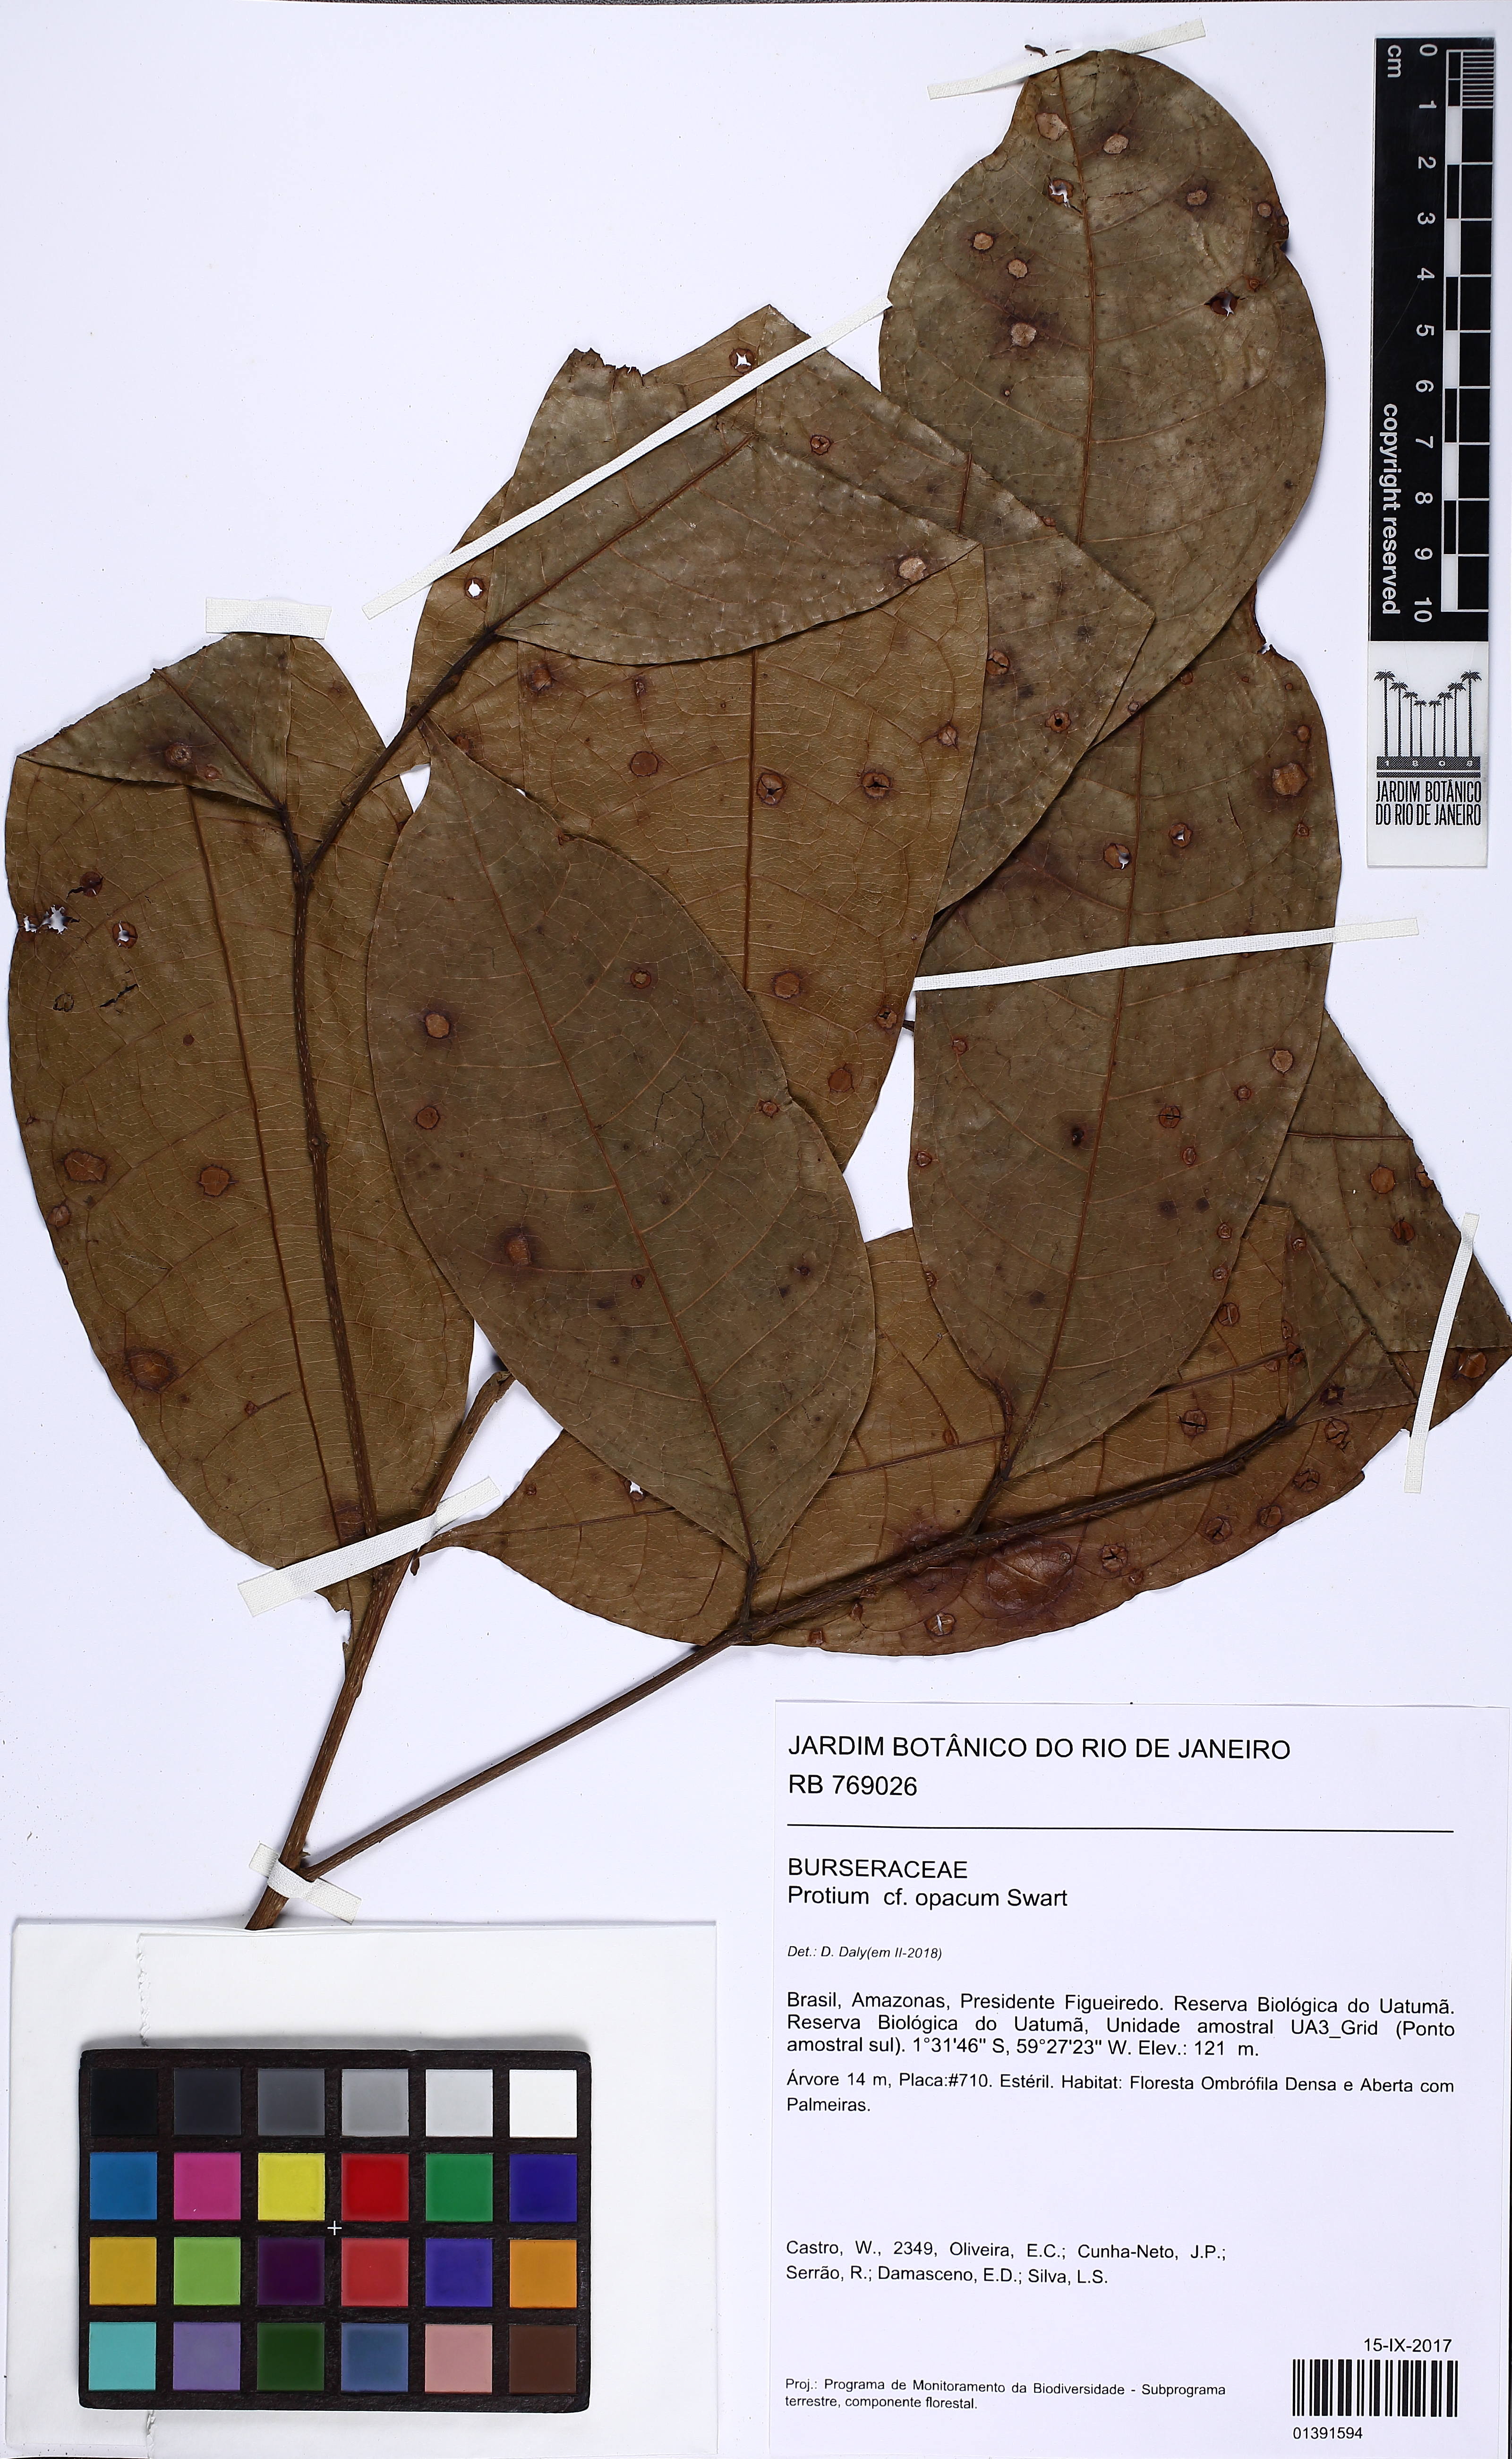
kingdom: Plantae
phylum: Tracheophyta
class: Magnoliopsida
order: Sapindales
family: Burseraceae
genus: Protium
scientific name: Protium opacum
